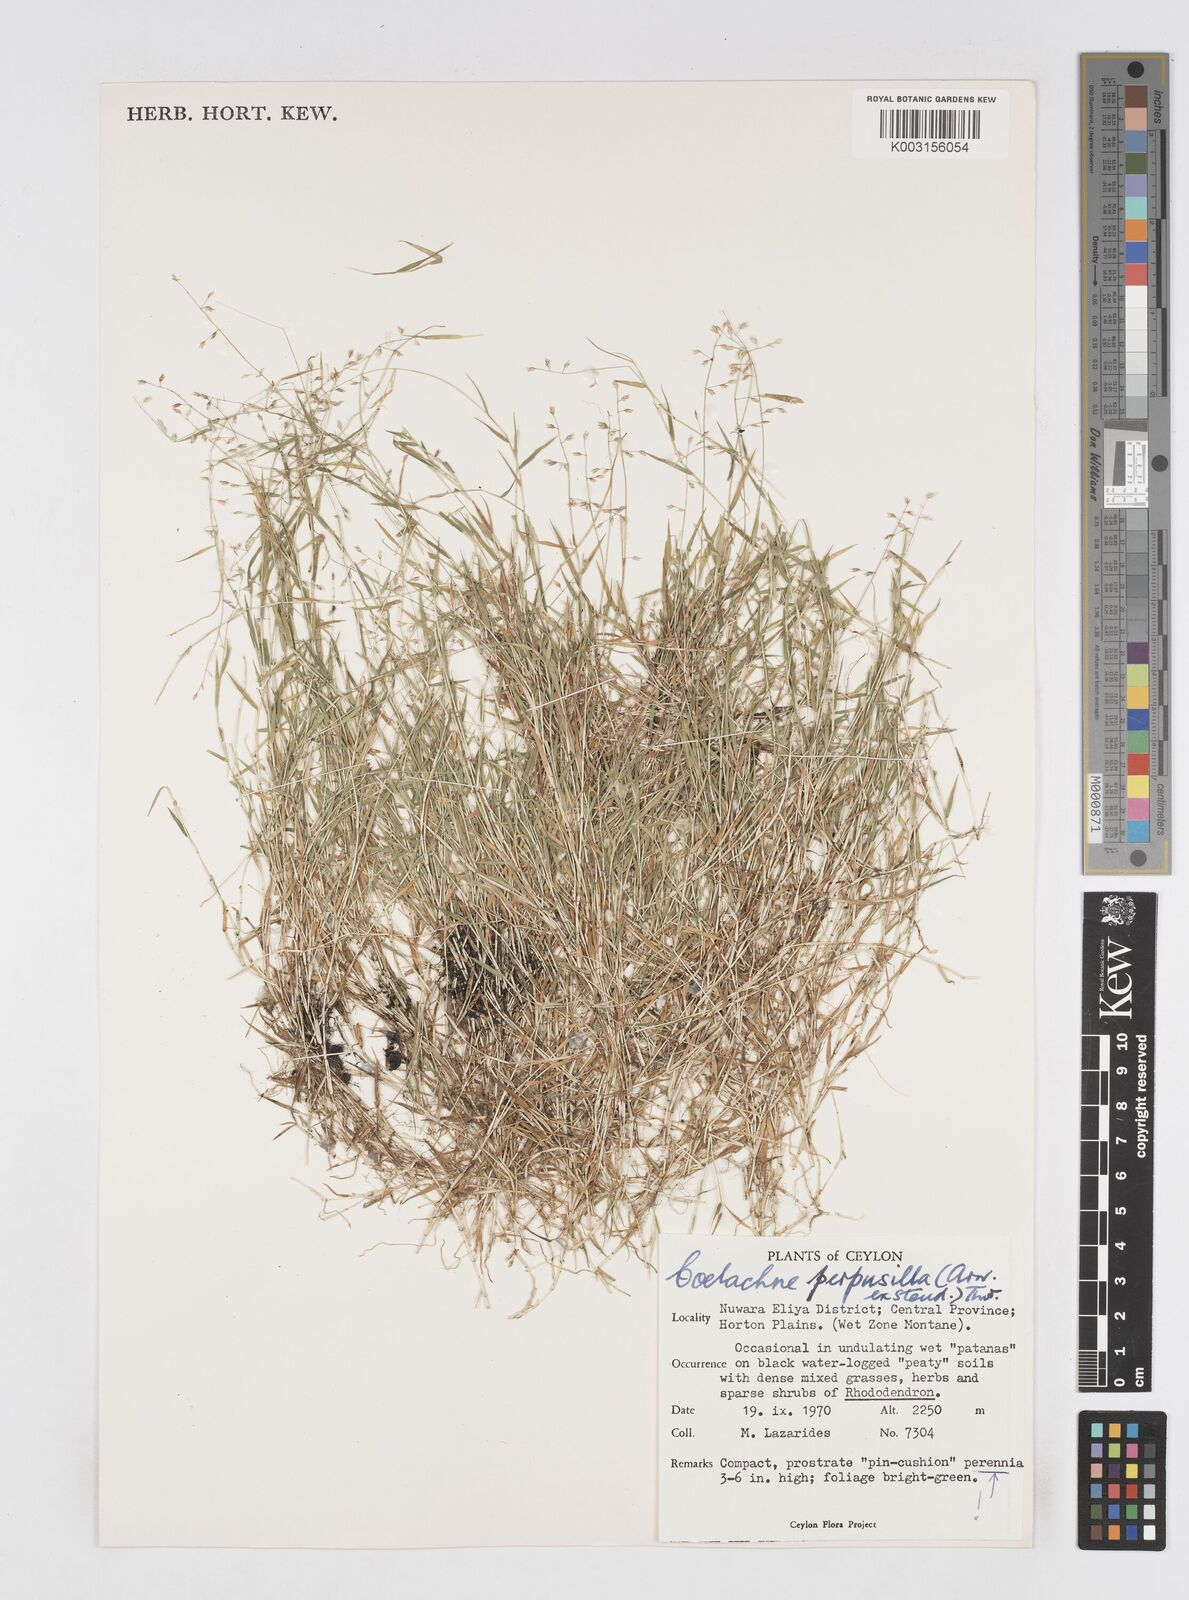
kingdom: Plantae
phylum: Tracheophyta
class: Liliopsida
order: Poales
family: Poaceae
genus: Coelachne
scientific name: Coelachne perpusilla
